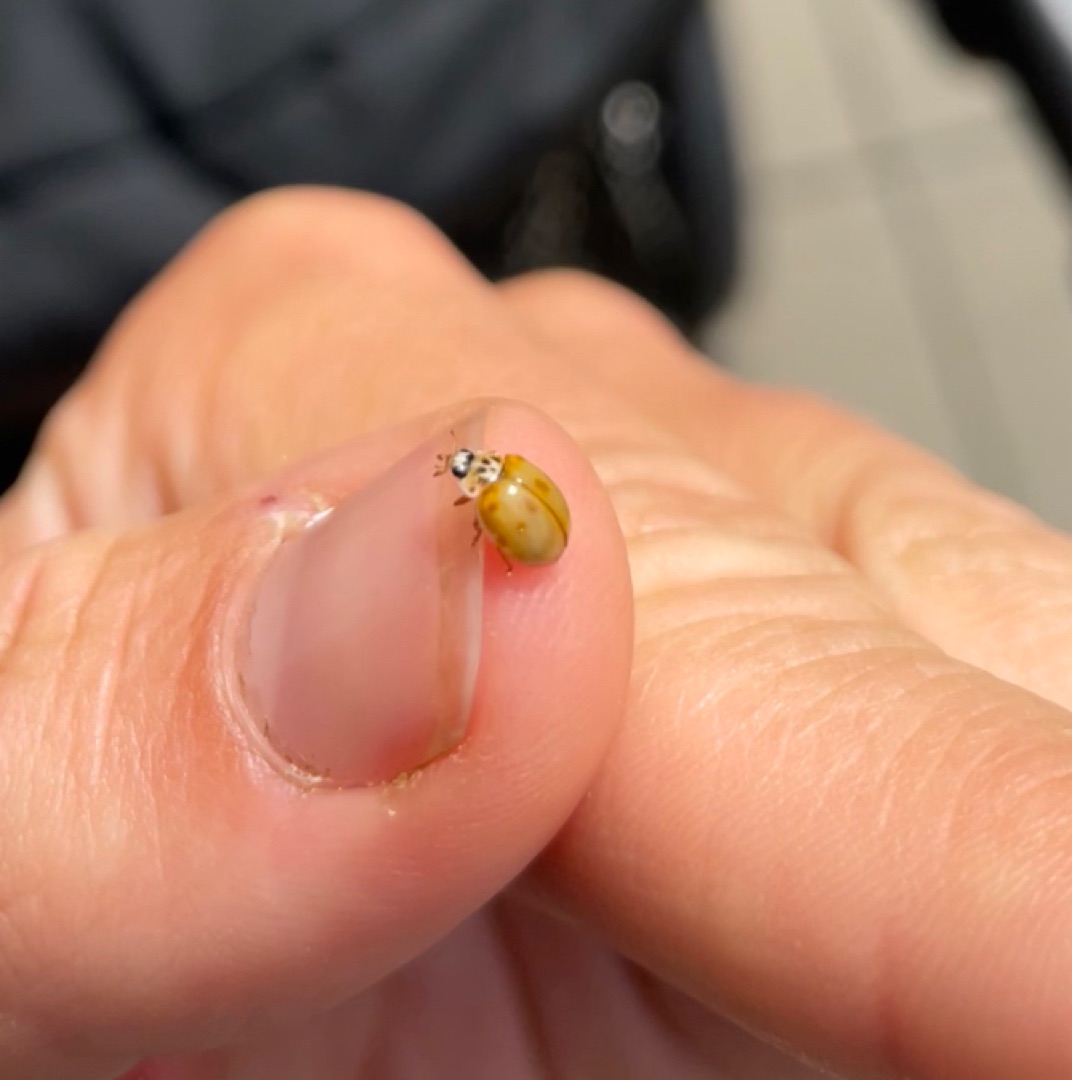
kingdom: Animalia
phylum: Arthropoda
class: Insecta
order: Coleoptera
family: Coccinellidae
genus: Adalia
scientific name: Adalia decempunctata
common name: Tiplettet mariehøne
